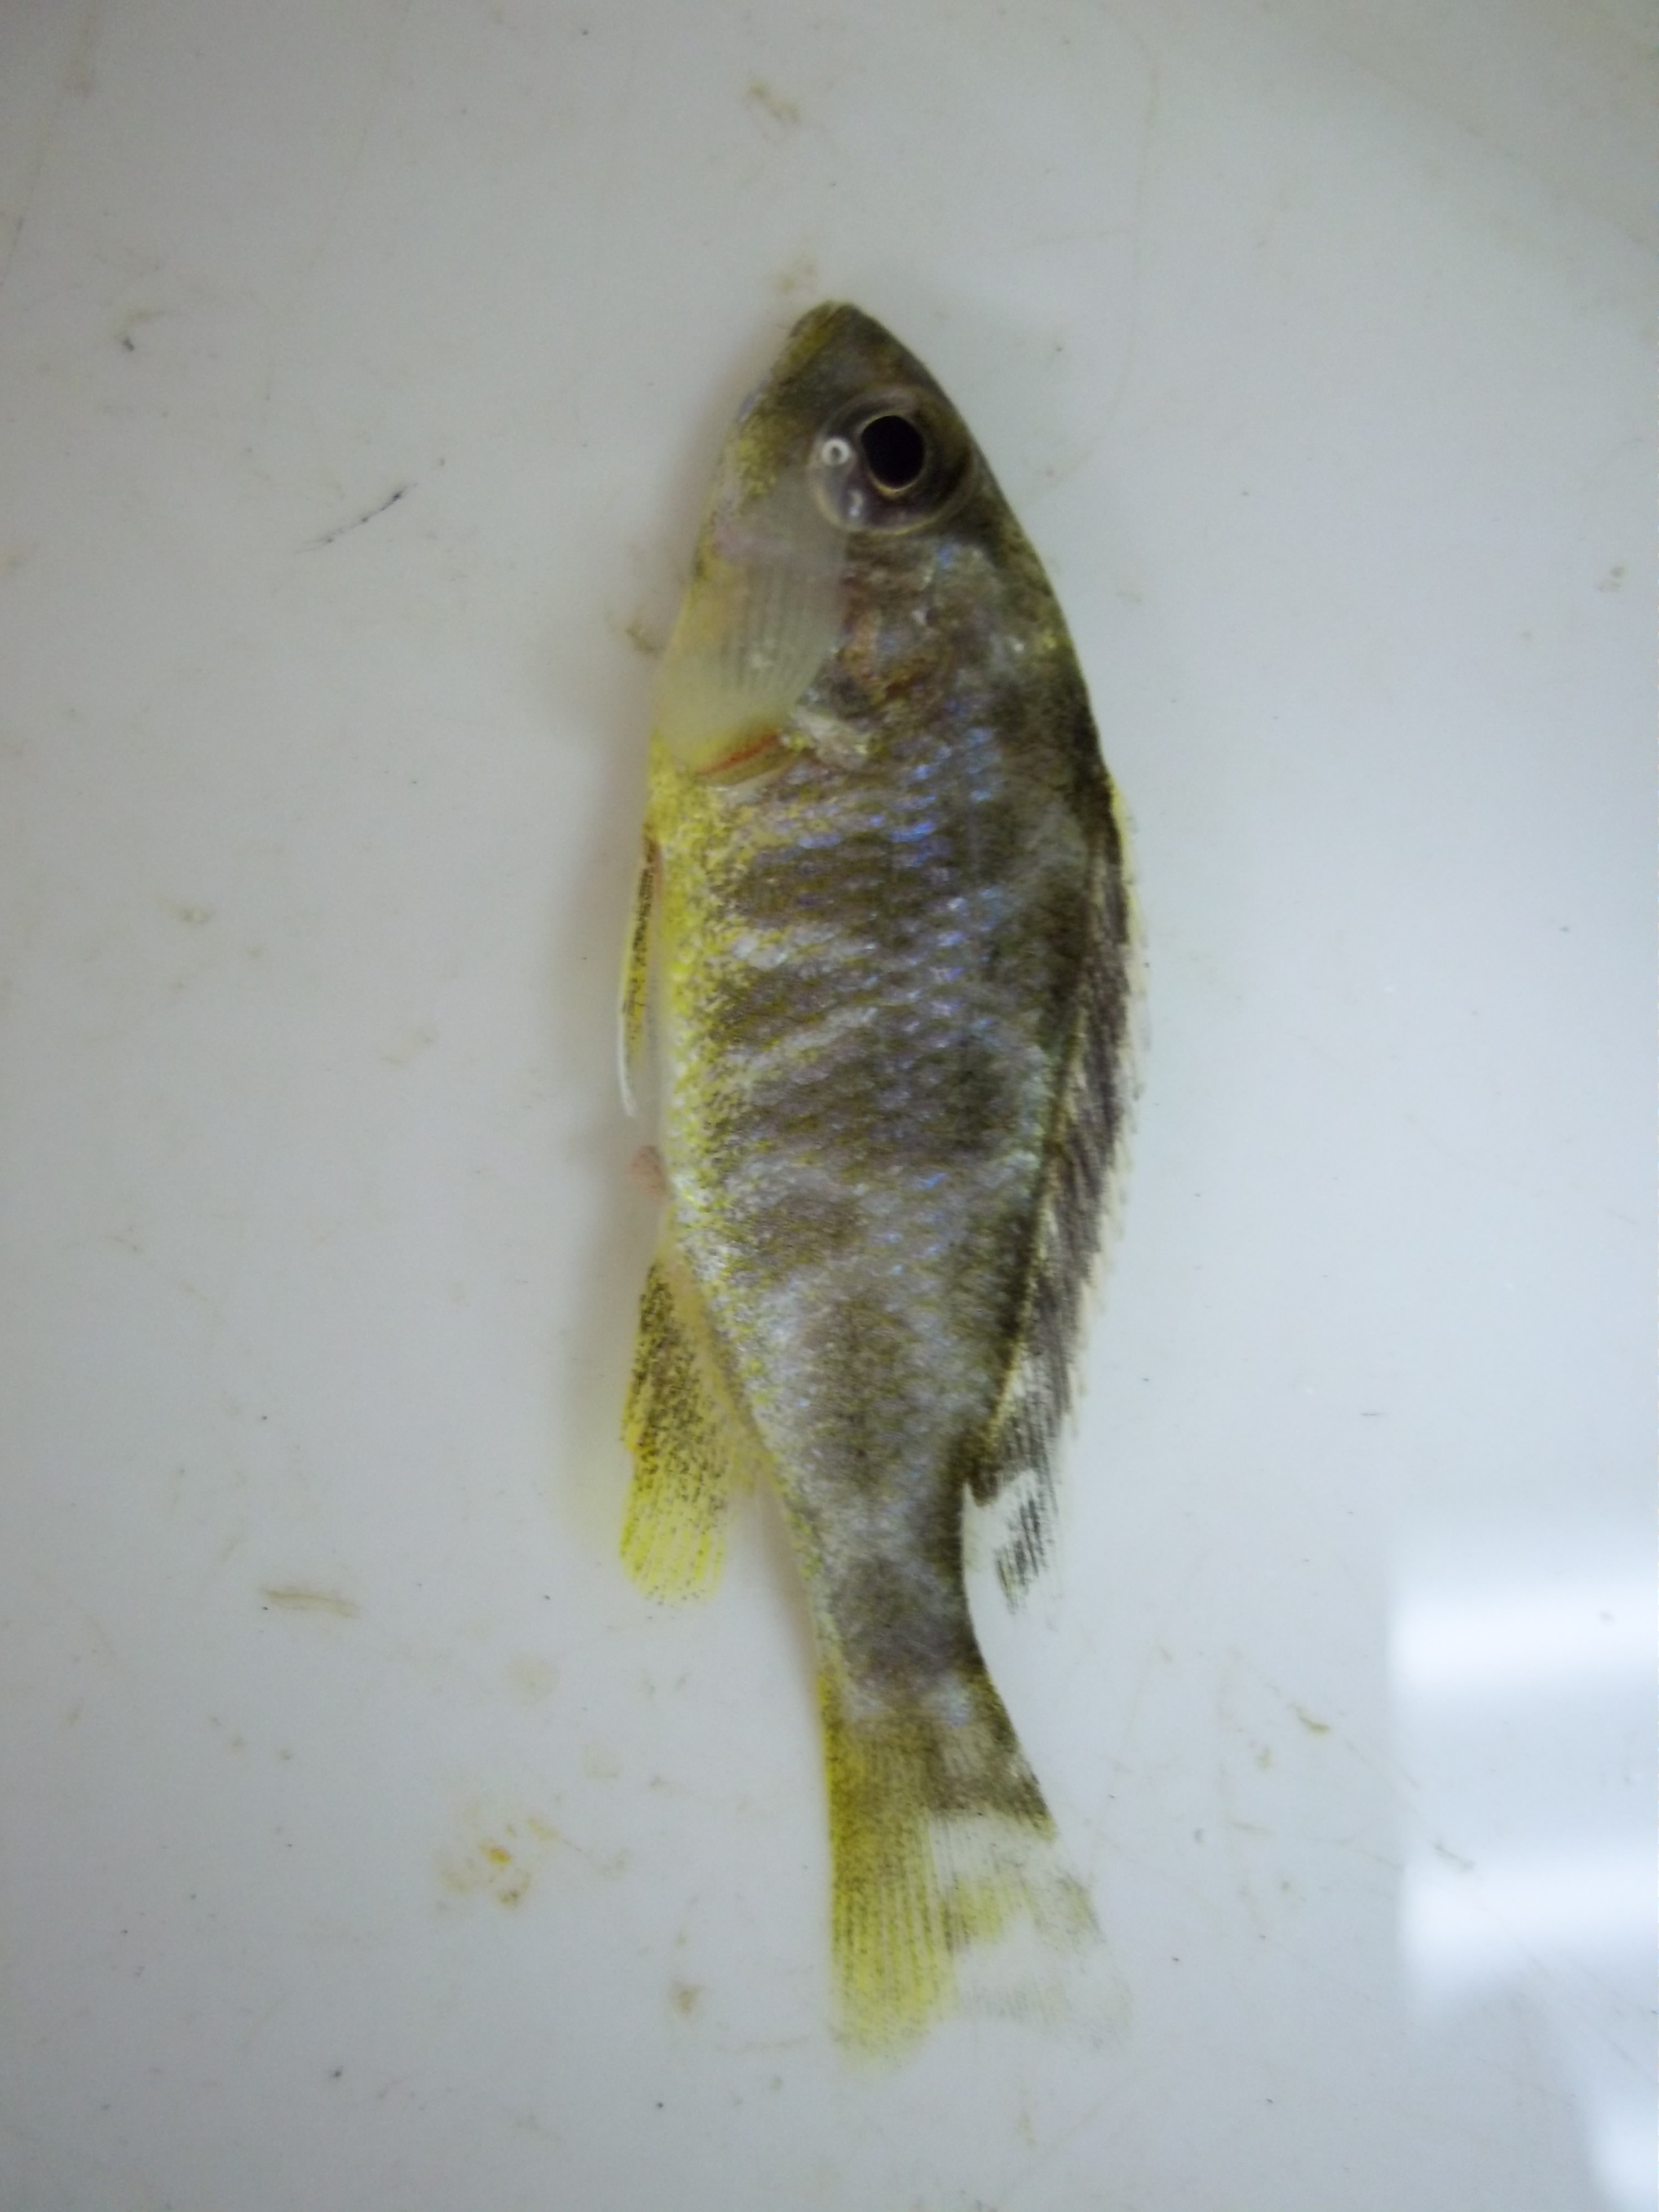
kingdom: Animalia
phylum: Chordata
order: Perciformes
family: Cichlidae
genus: Nimbochromis
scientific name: Nimbochromis venustus
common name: Venustus
